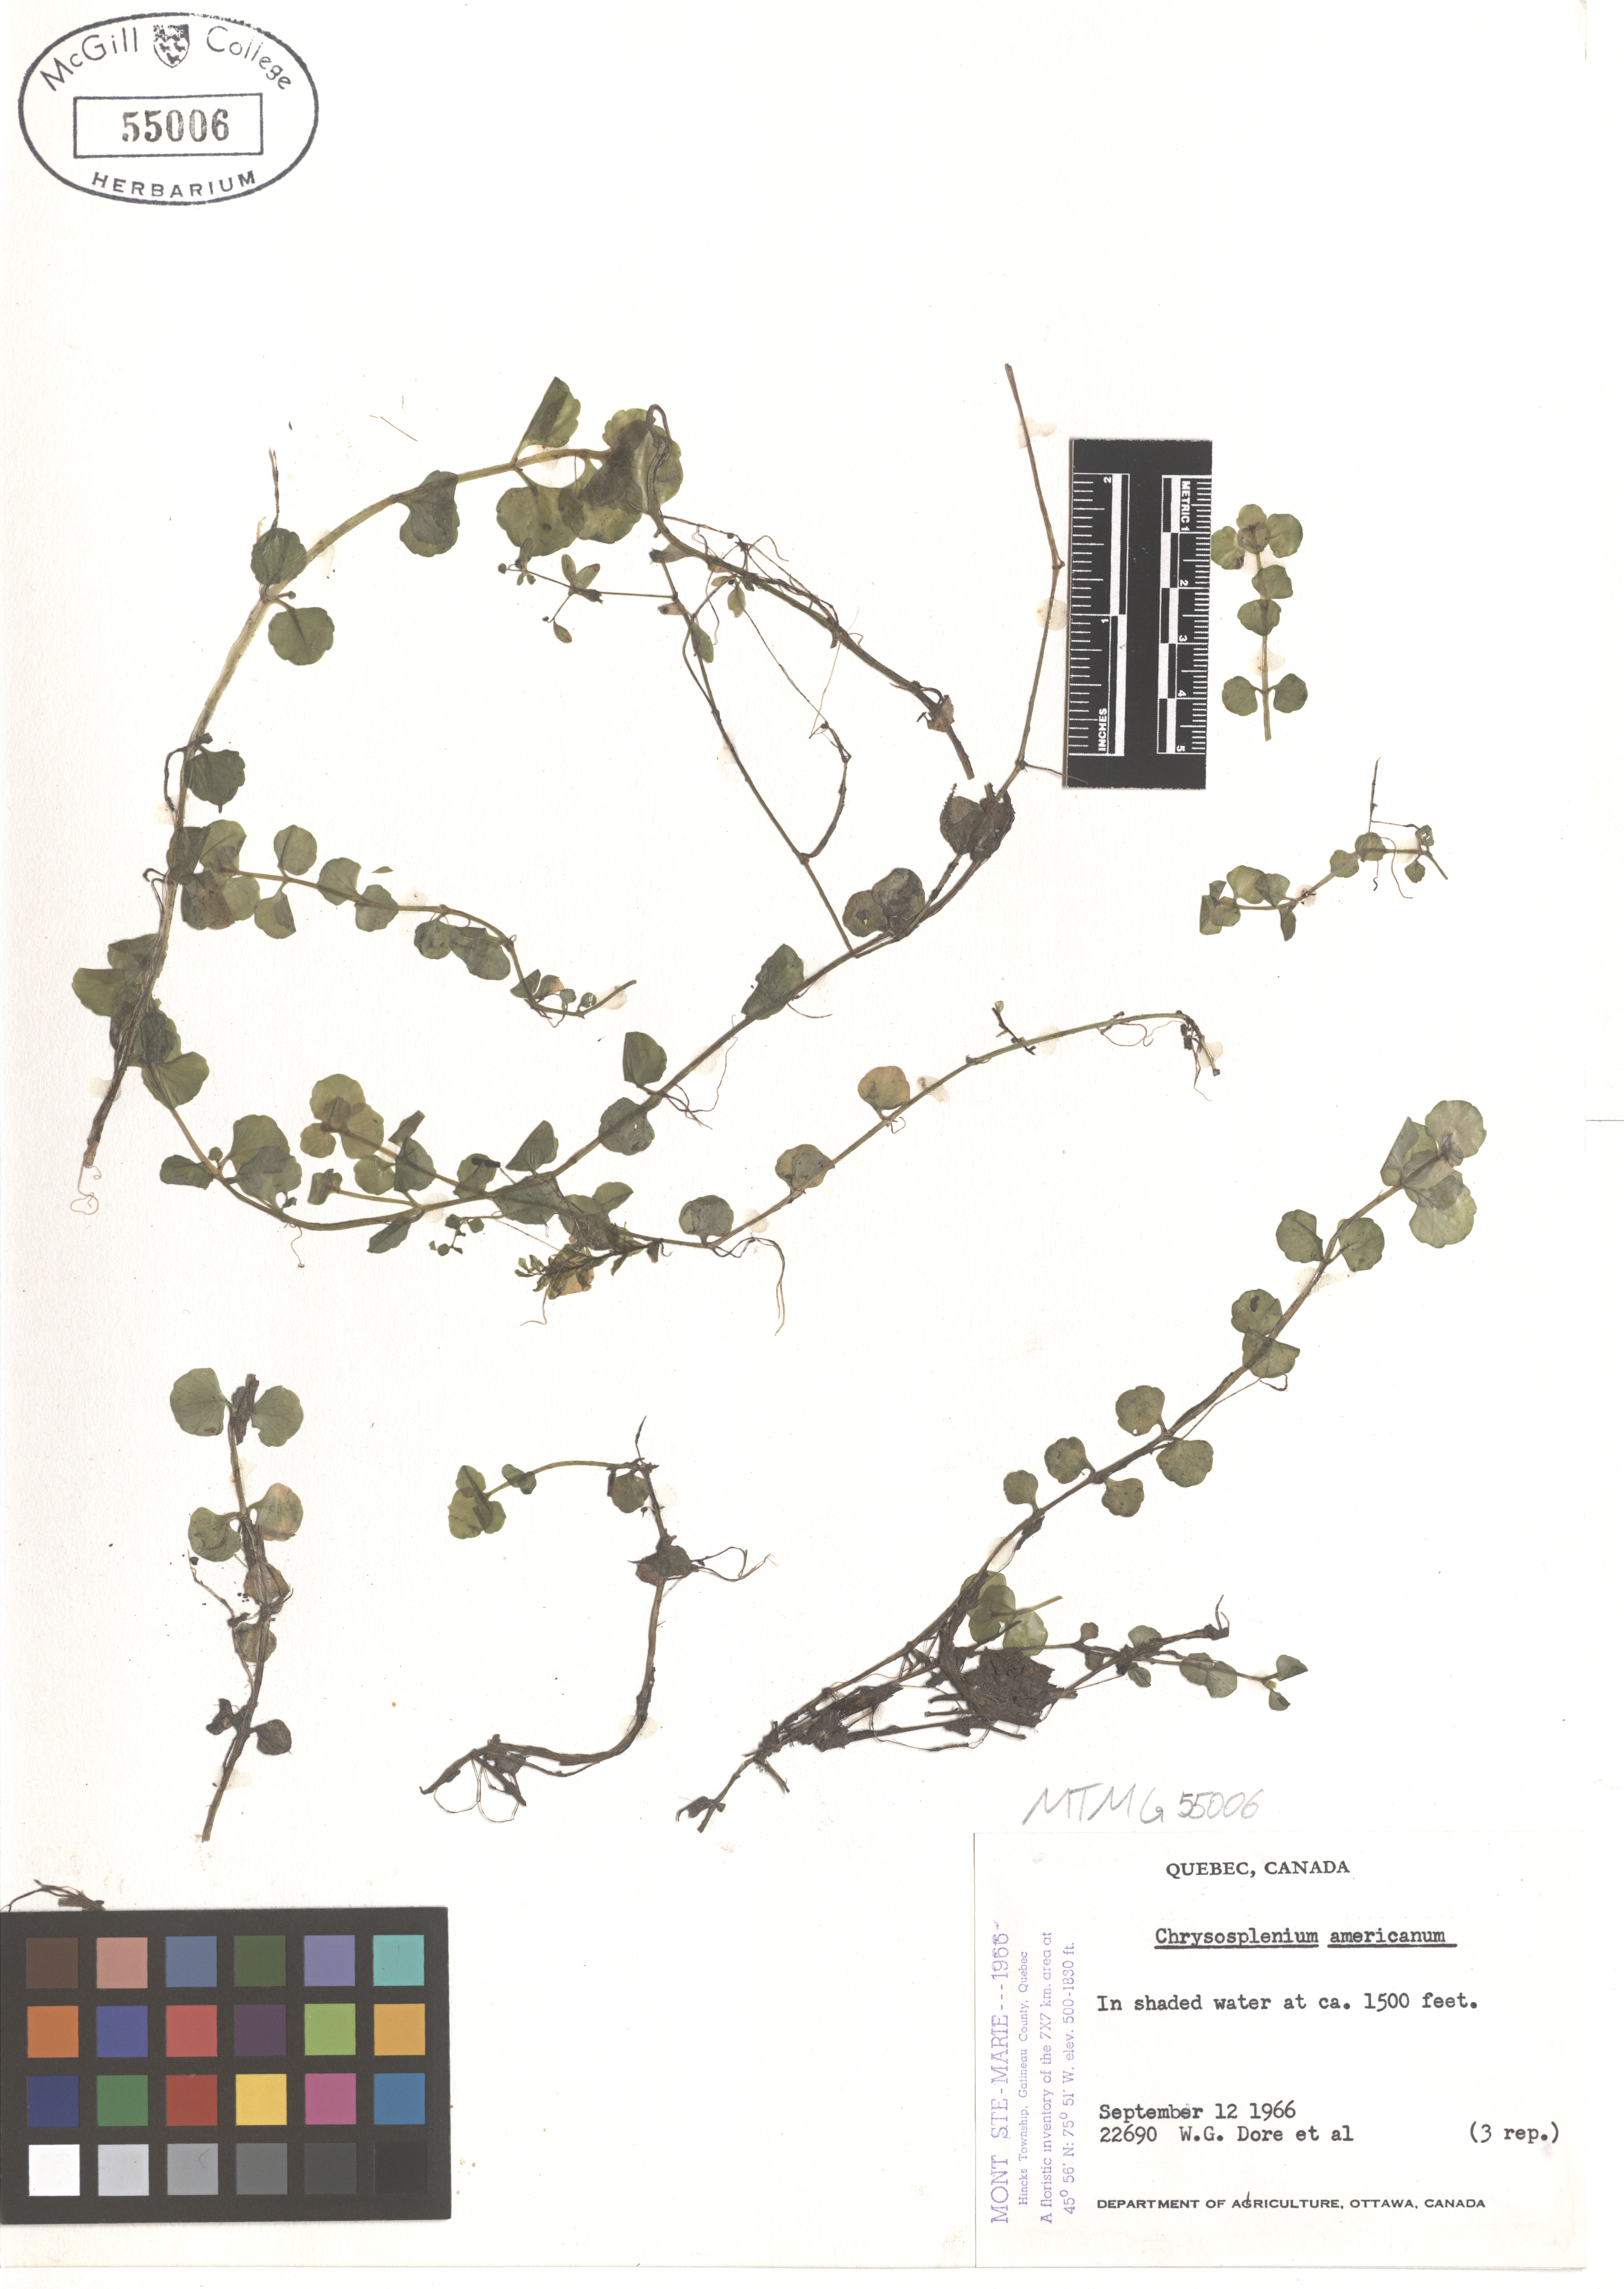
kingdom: Plantae
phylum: Tracheophyta
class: Magnoliopsida
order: Saxifragales
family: Saxifragaceae
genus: Chrysosplenium
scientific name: Chrysosplenium americanum
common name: American golden-saxifrage
